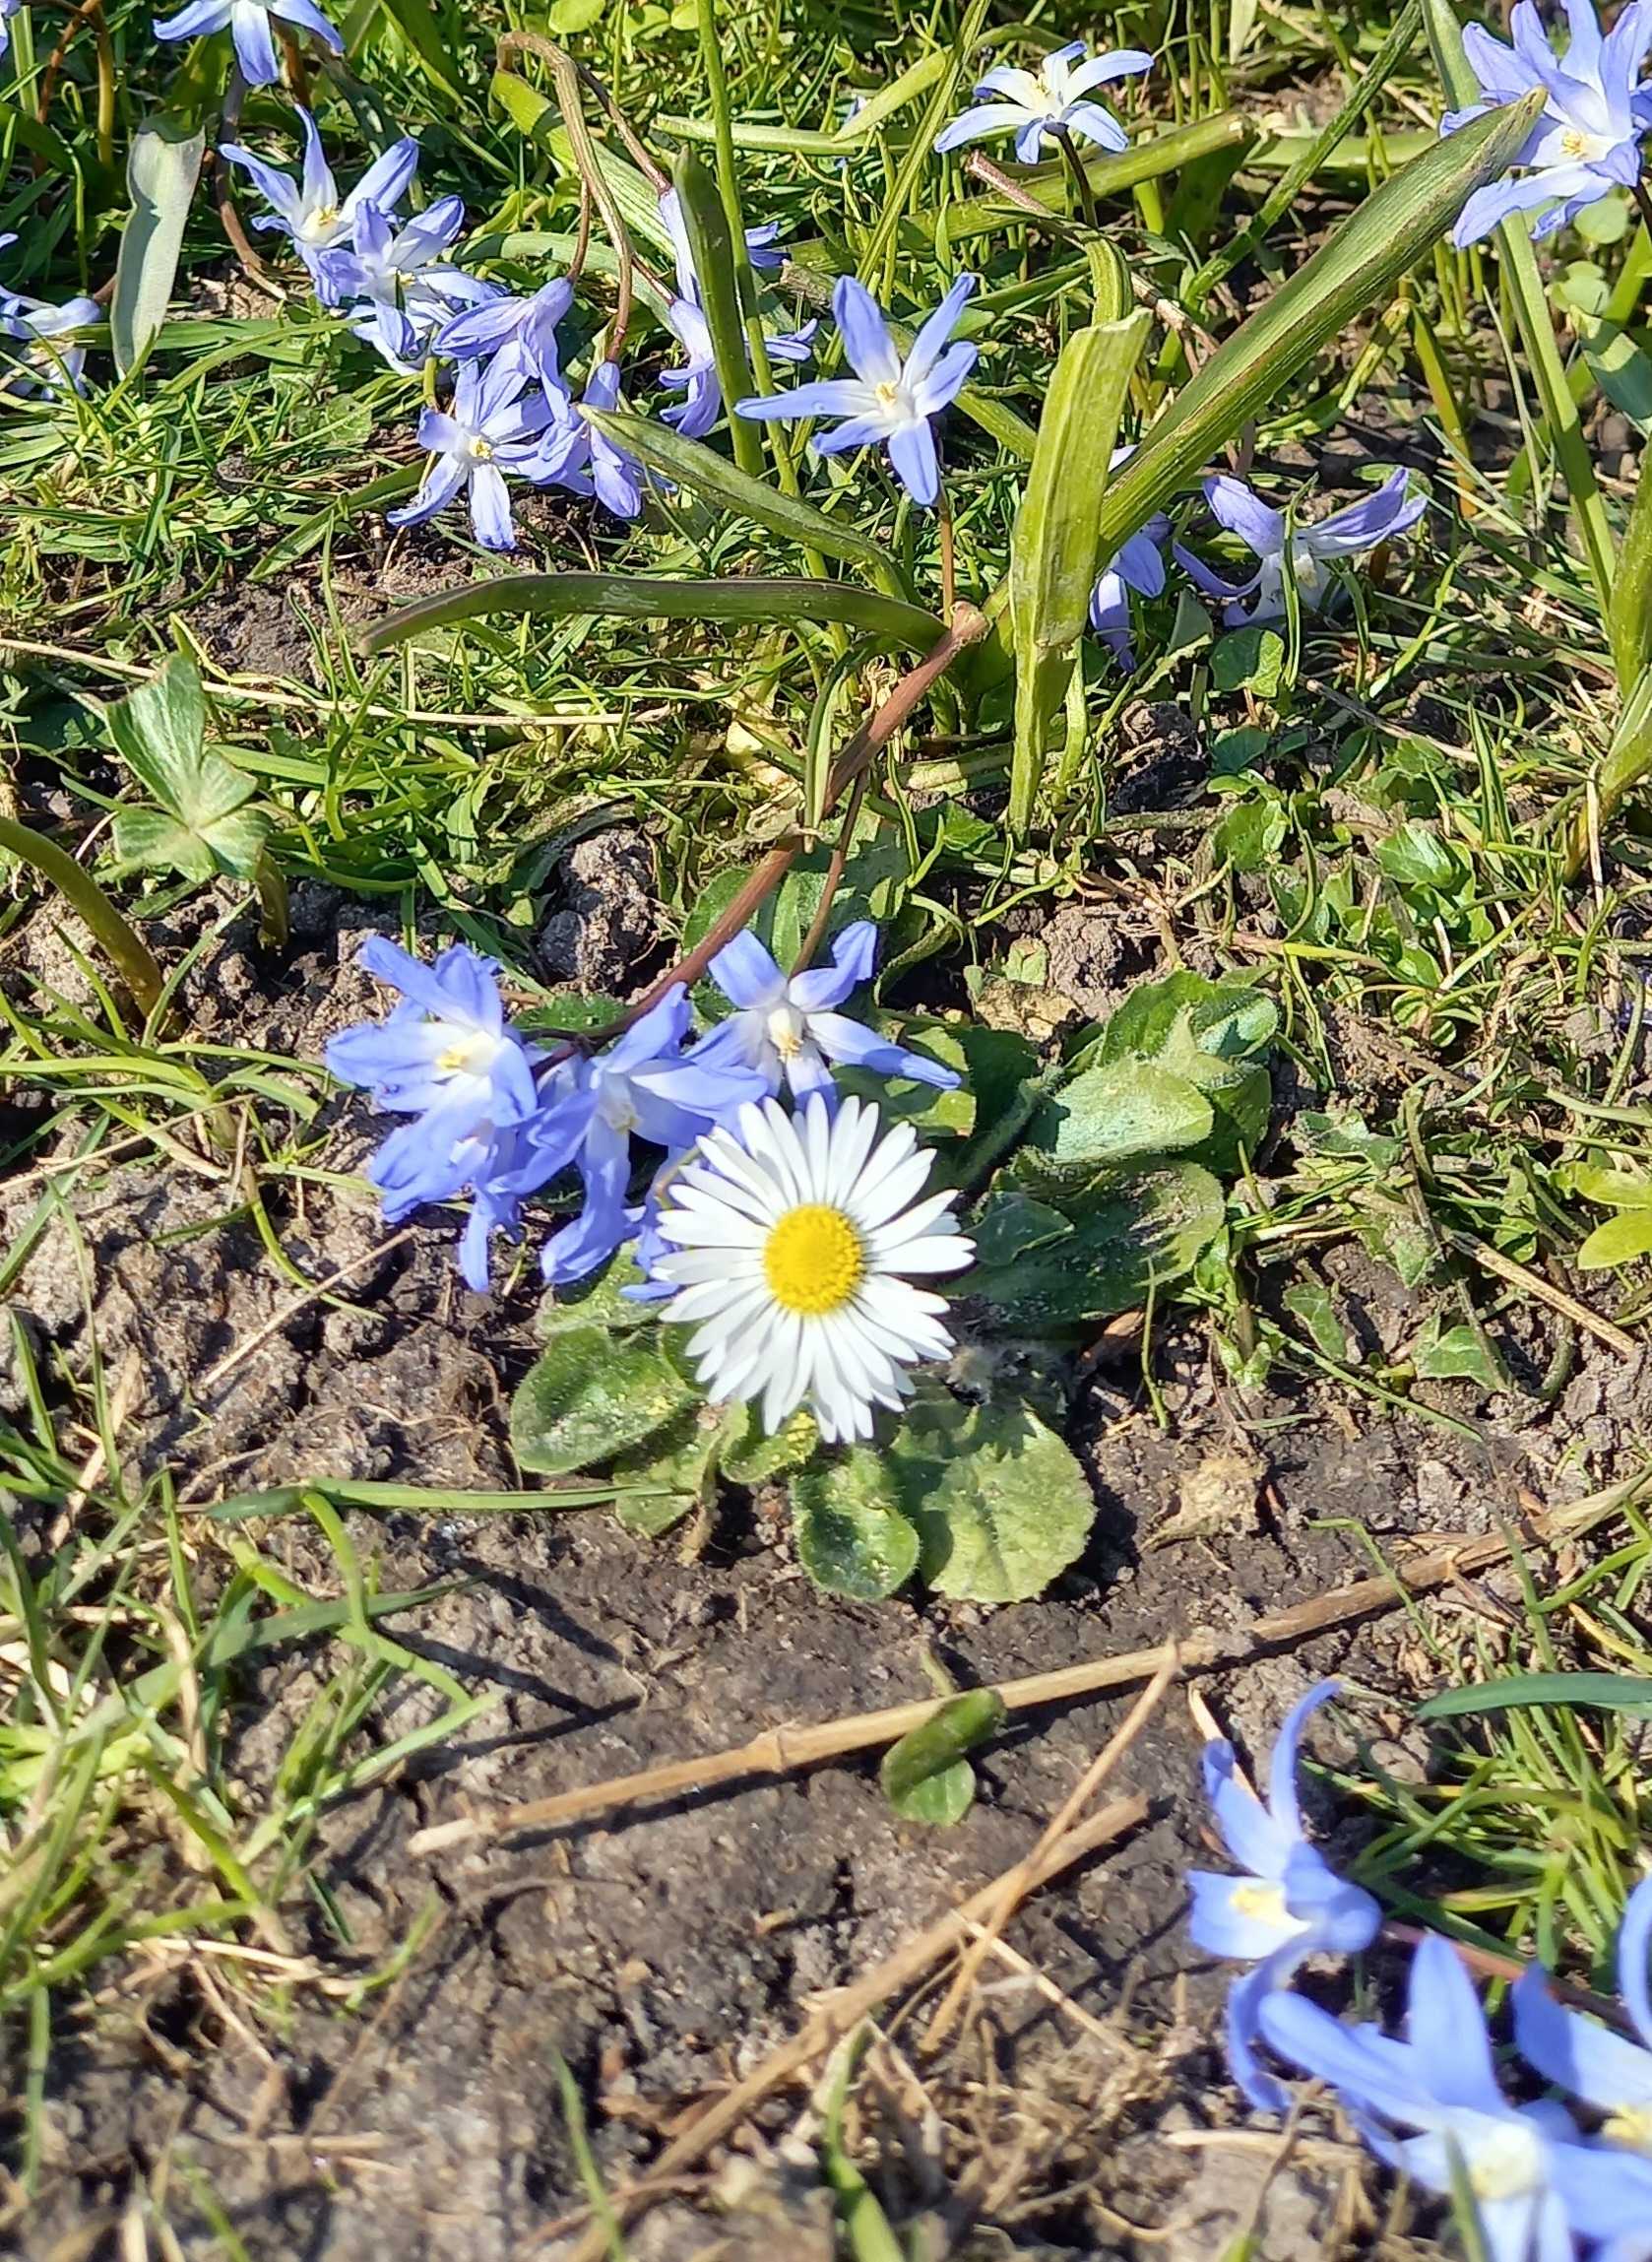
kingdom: Plantae
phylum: Tracheophyta
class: Magnoliopsida
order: Asterales
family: Asteraceae
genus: Bellis
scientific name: Bellis perennis
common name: Tusindfryd
